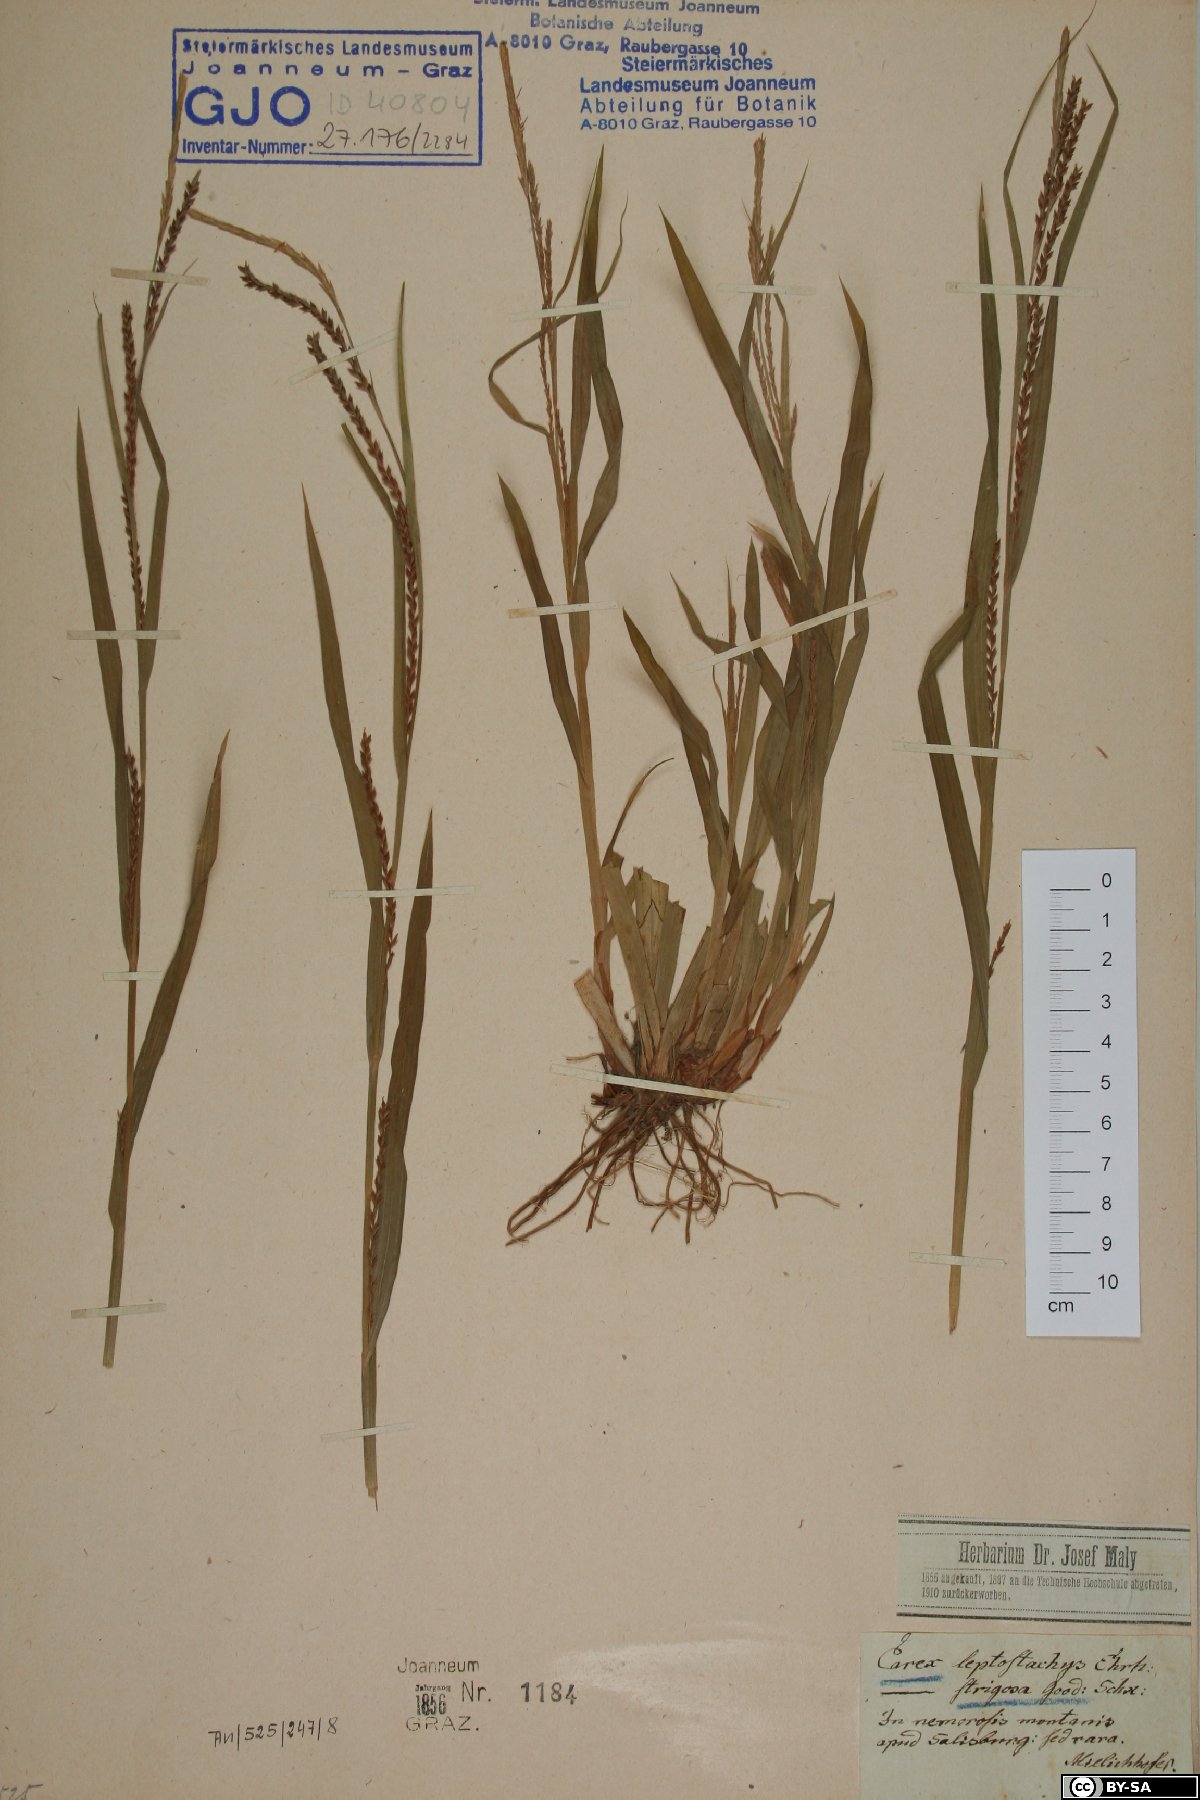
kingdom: Plantae
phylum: Tracheophyta
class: Liliopsida
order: Poales
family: Cyperaceae
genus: Carex
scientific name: Carex strigosa
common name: Thin-spiked wood-sedge
